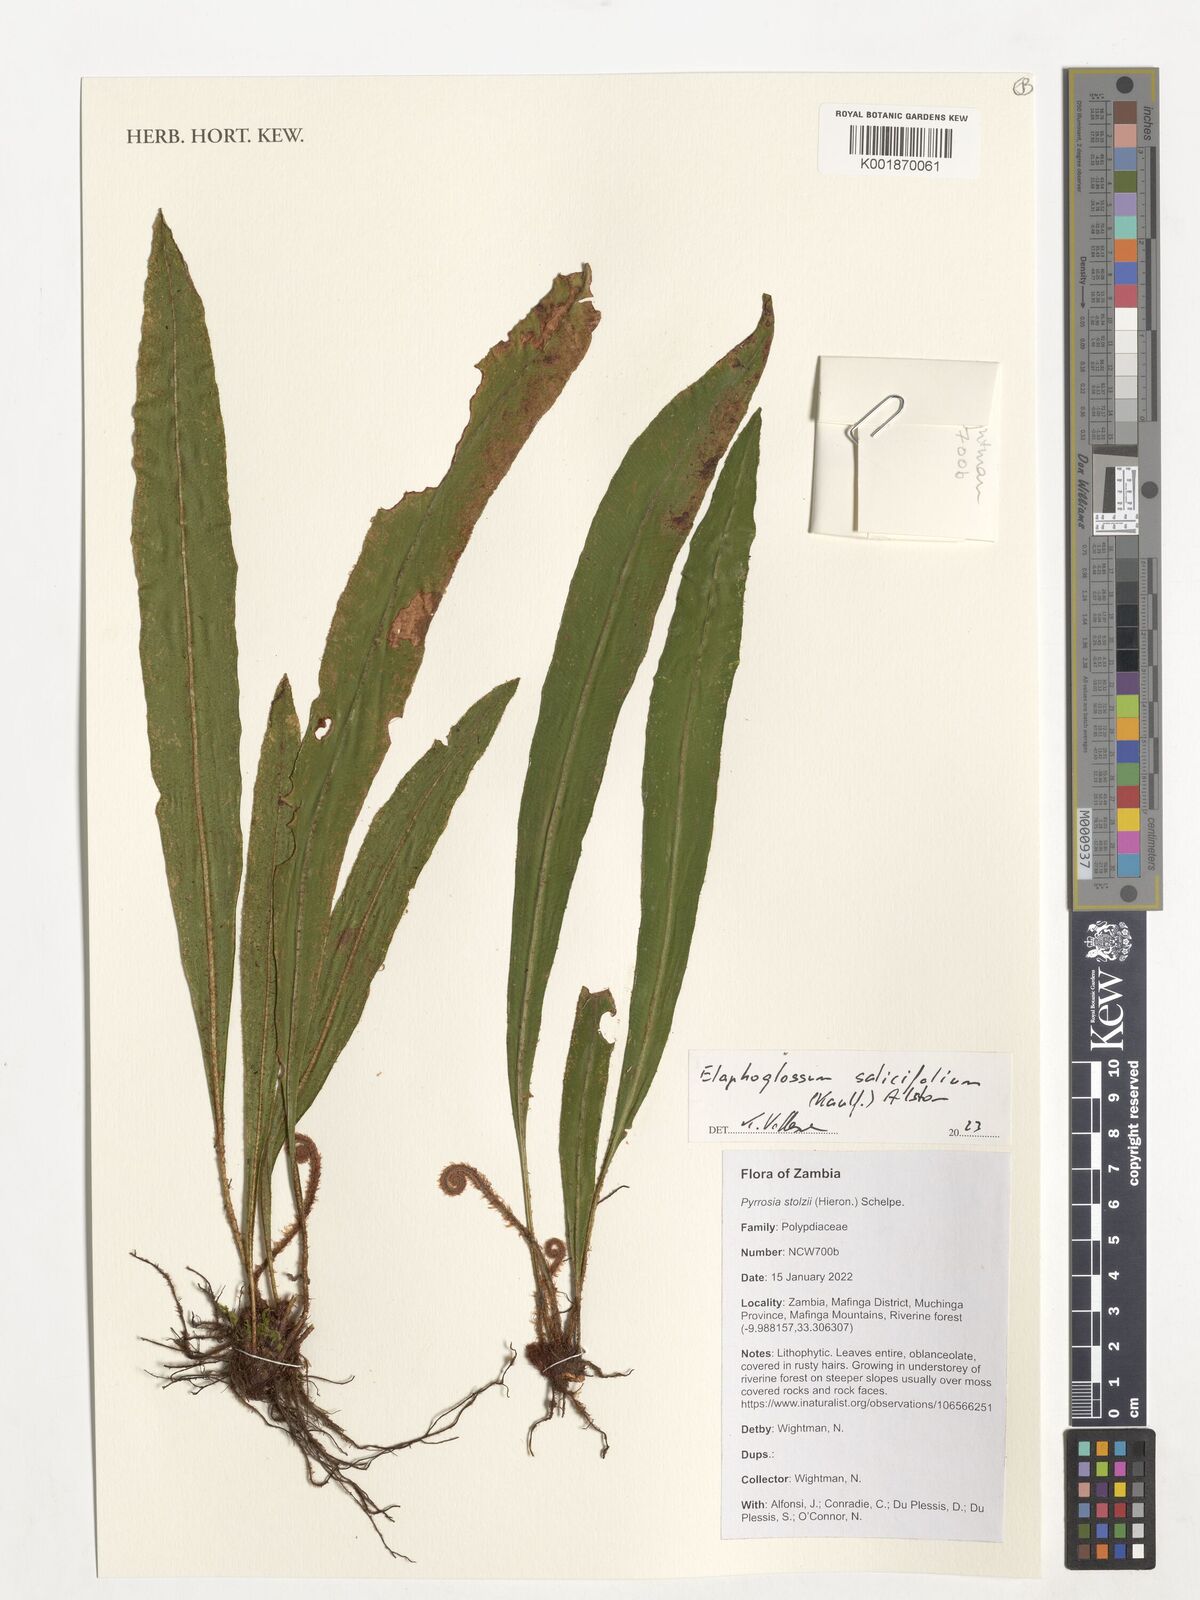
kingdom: Plantae
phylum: Tracheophyta
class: Polypodiopsida
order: Polypodiales
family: Dryopteridaceae
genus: Elaphoglossum
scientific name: Elaphoglossum lancifolium
